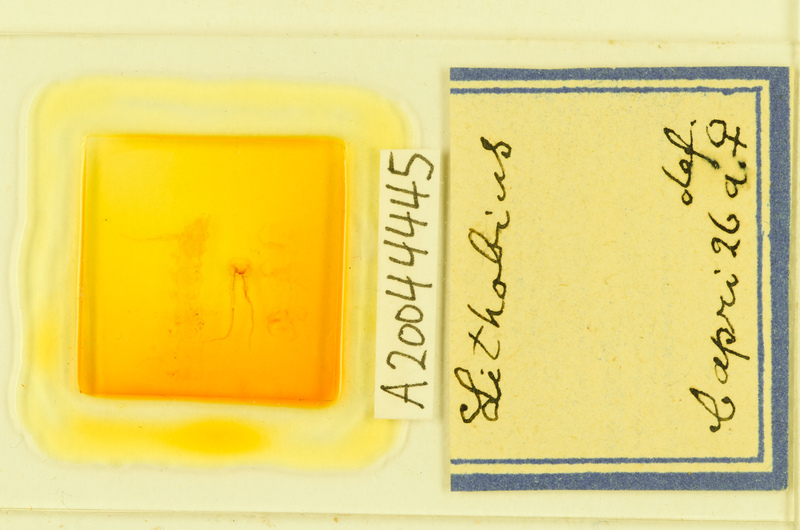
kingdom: Animalia
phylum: Arthropoda
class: Chilopoda
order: Lithobiomorpha
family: Lithobiidae
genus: Lithobius
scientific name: Lithobius
